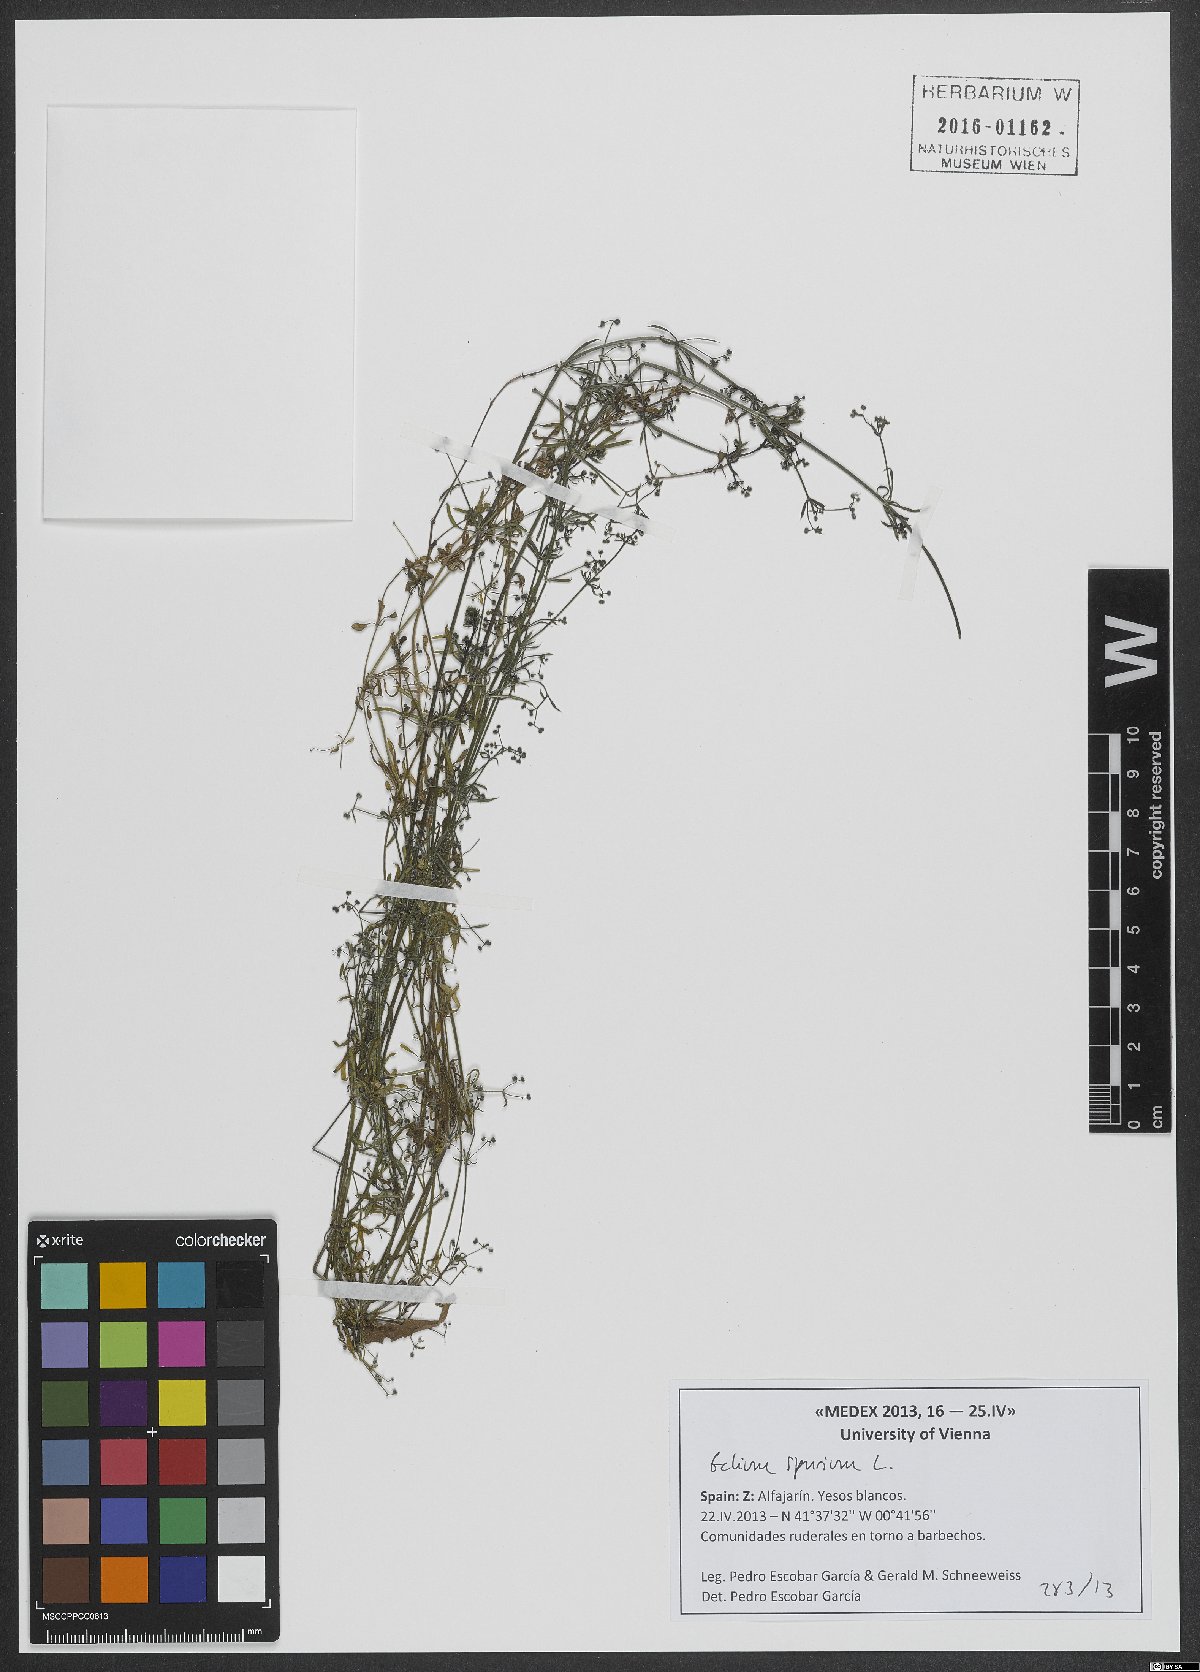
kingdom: Plantae
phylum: Tracheophyta
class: Magnoliopsida
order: Gentianales
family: Rubiaceae
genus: Galium
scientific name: Galium spurium
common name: False cleavers
